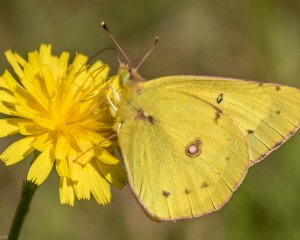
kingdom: Animalia
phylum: Arthropoda
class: Insecta
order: Lepidoptera
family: Pieridae
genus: Colias
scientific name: Colias eurytheme
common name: Orange Sulphur
